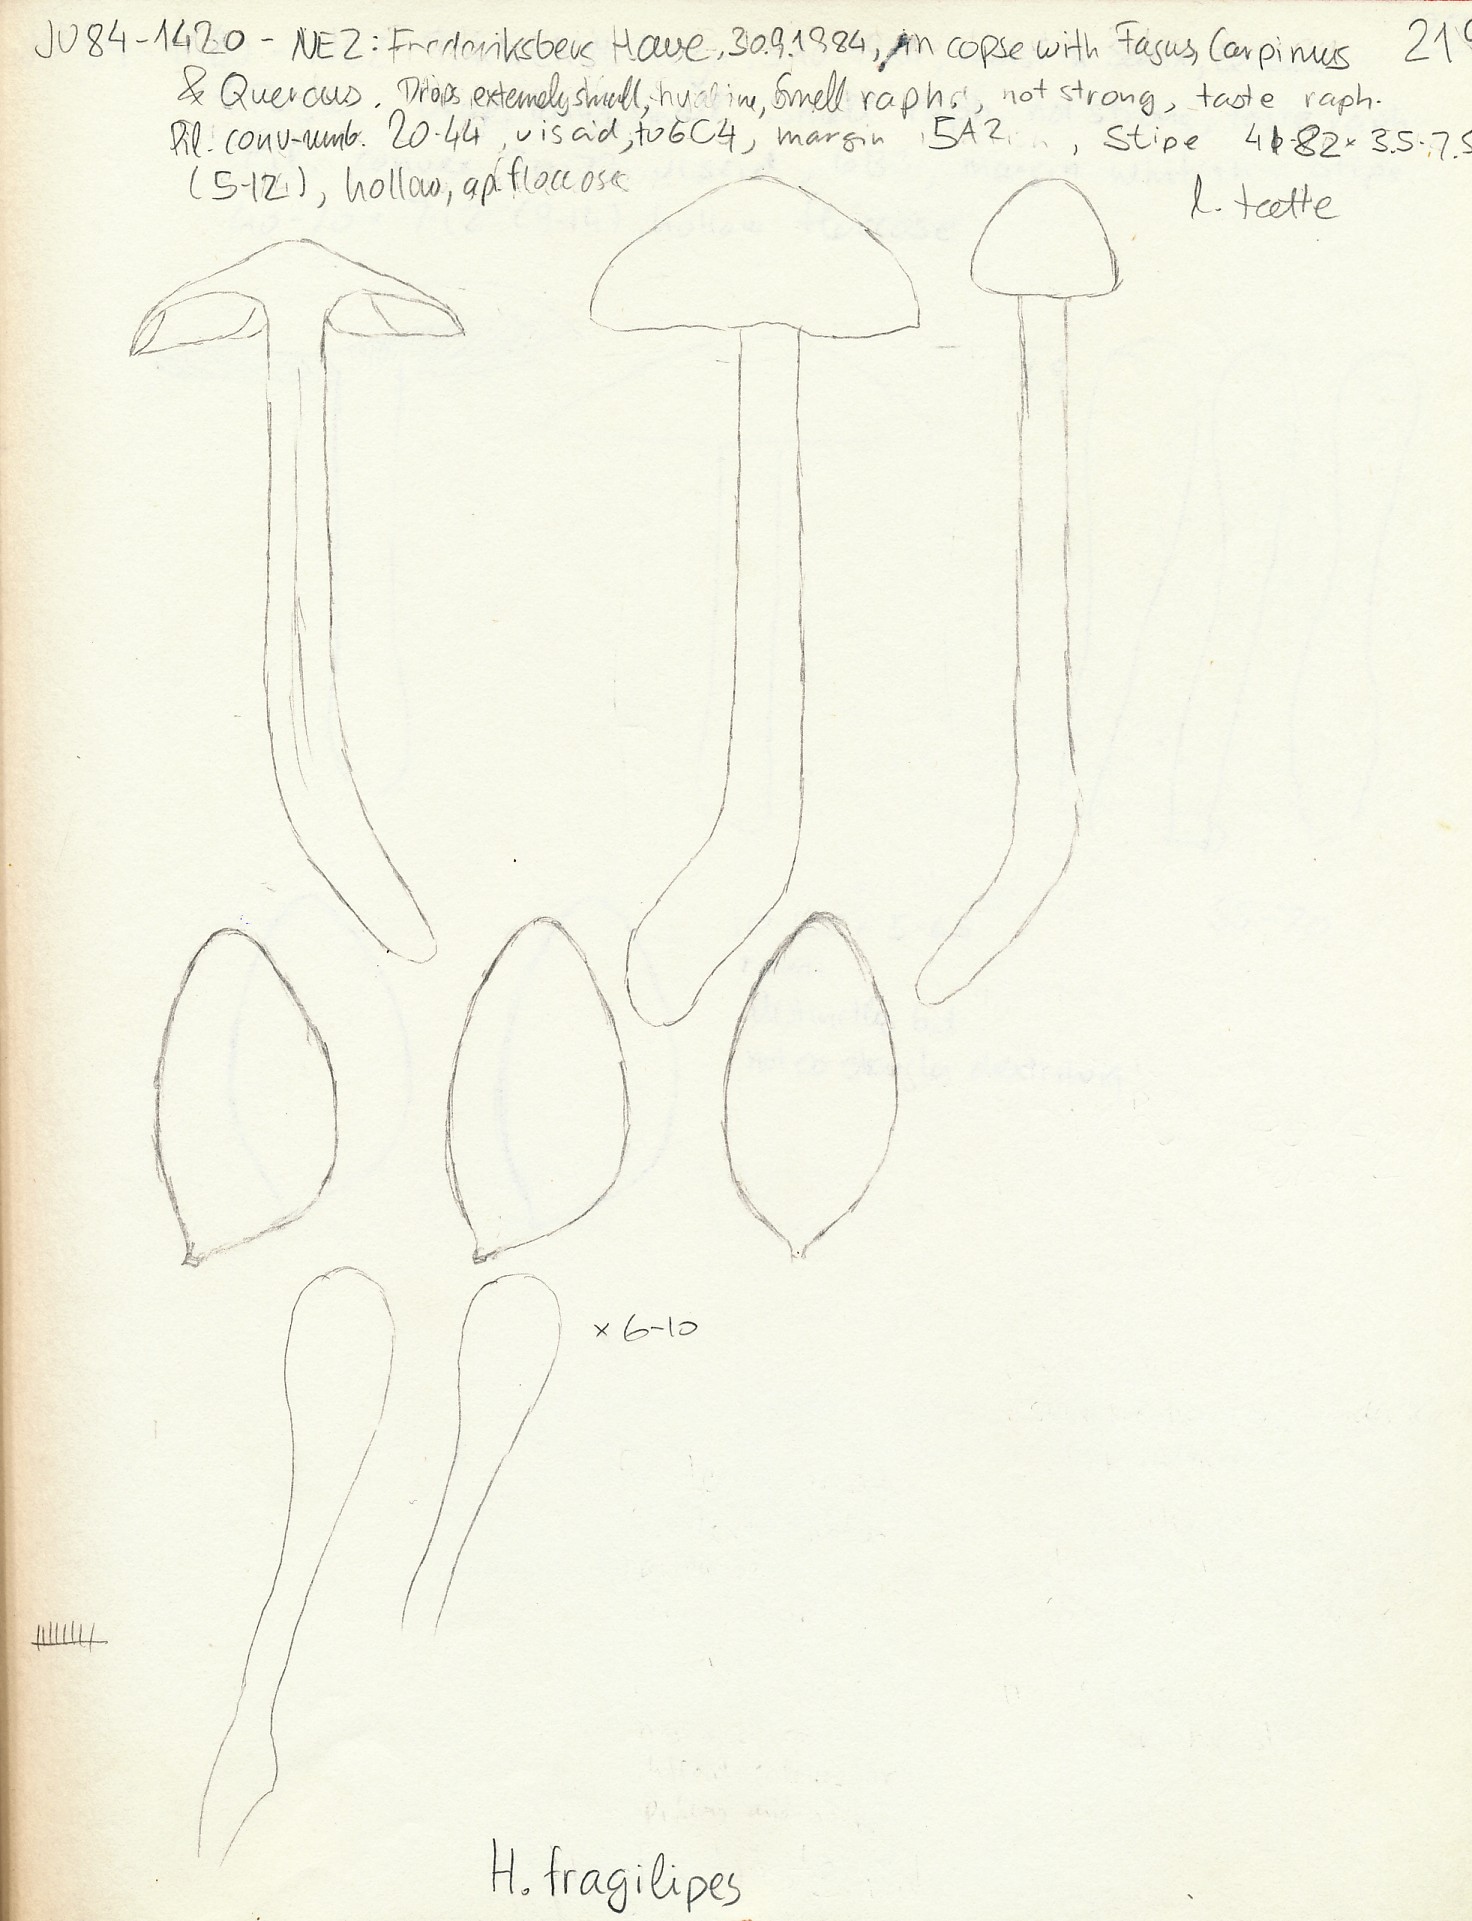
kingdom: Fungi
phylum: Basidiomycota
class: Agaricomycetes
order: Agaricales
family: Hymenogastraceae
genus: Hebeloma
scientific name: Hebeloma album
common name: skør tåreblad
